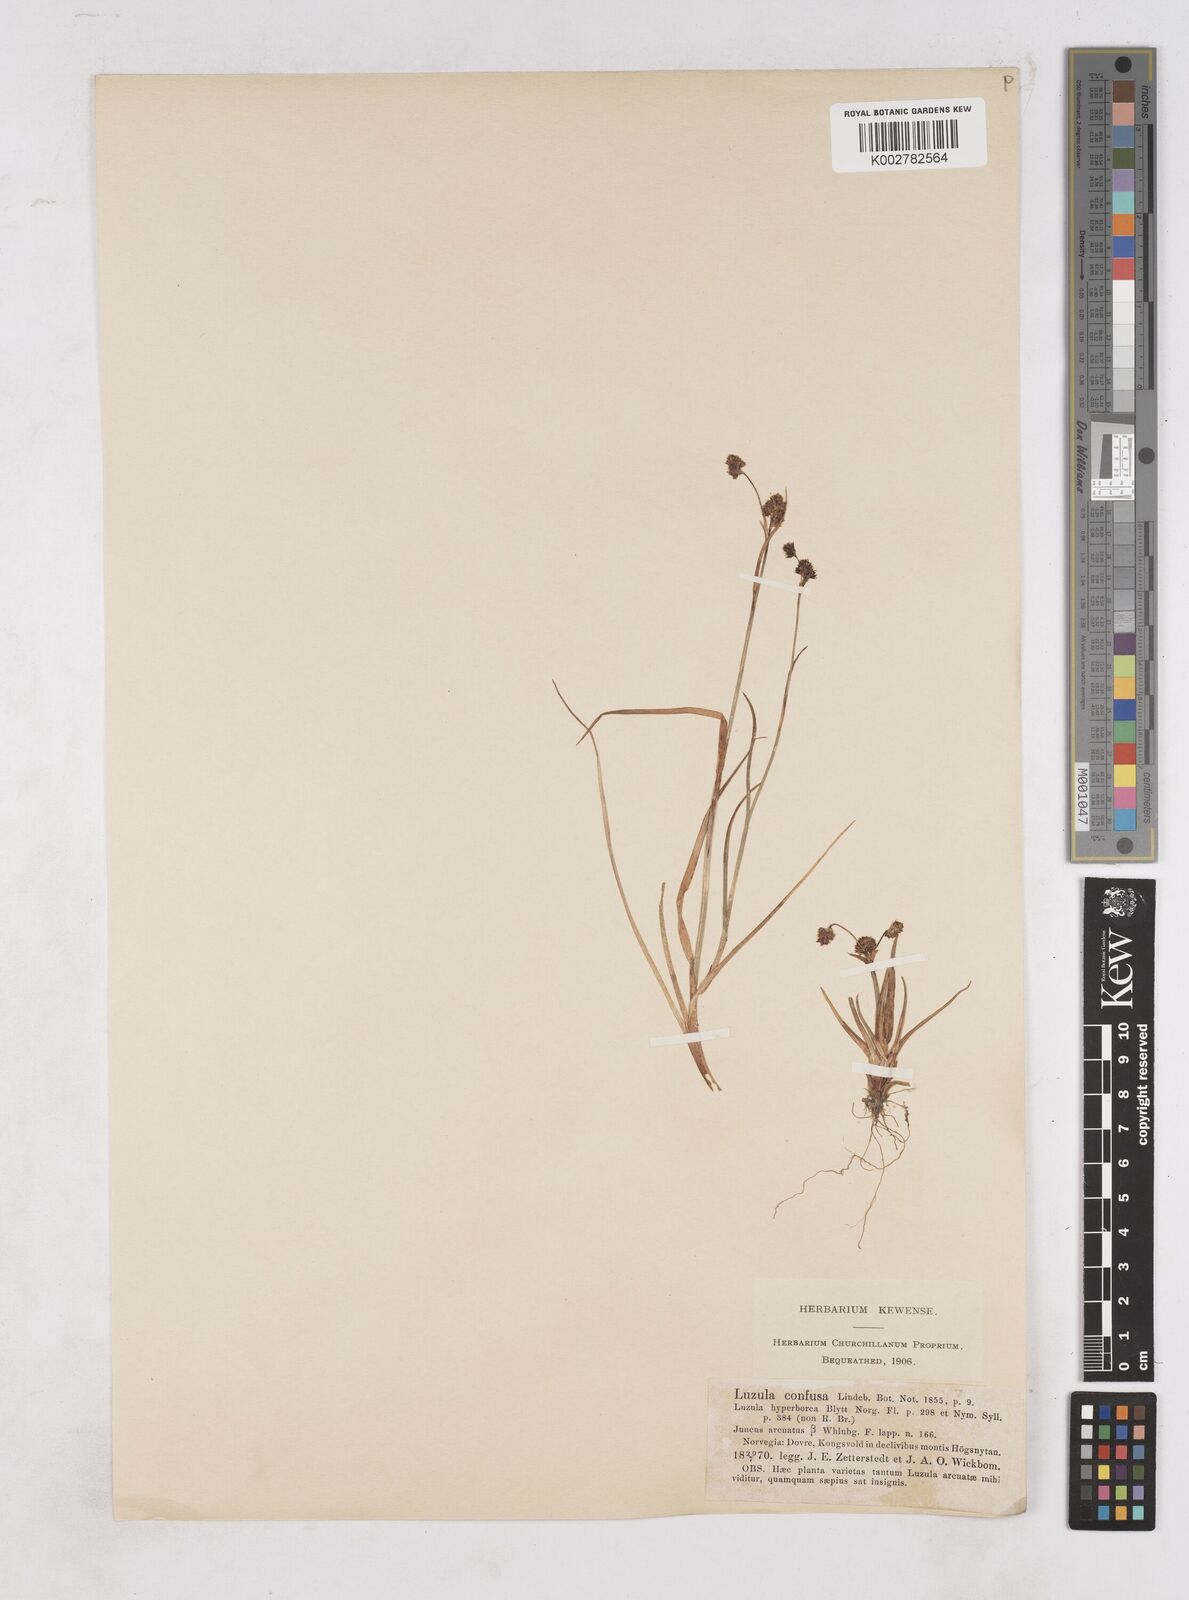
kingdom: Plantae
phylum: Tracheophyta
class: Liliopsida
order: Poales
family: Juncaceae
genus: Luzula
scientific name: Luzula confusa
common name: Northern wood rush
